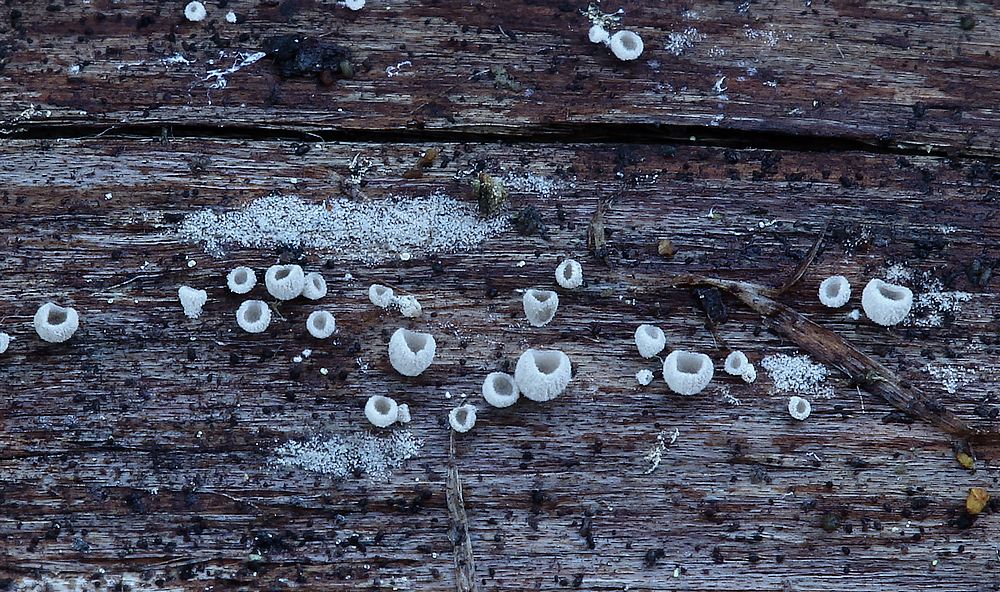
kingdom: Fungi
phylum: Basidiomycota
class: Agaricomycetes
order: Agaricales
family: Pleurotaceae
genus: Resupinatus
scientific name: Resupinatus griseopallidus
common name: ene-barkhat
